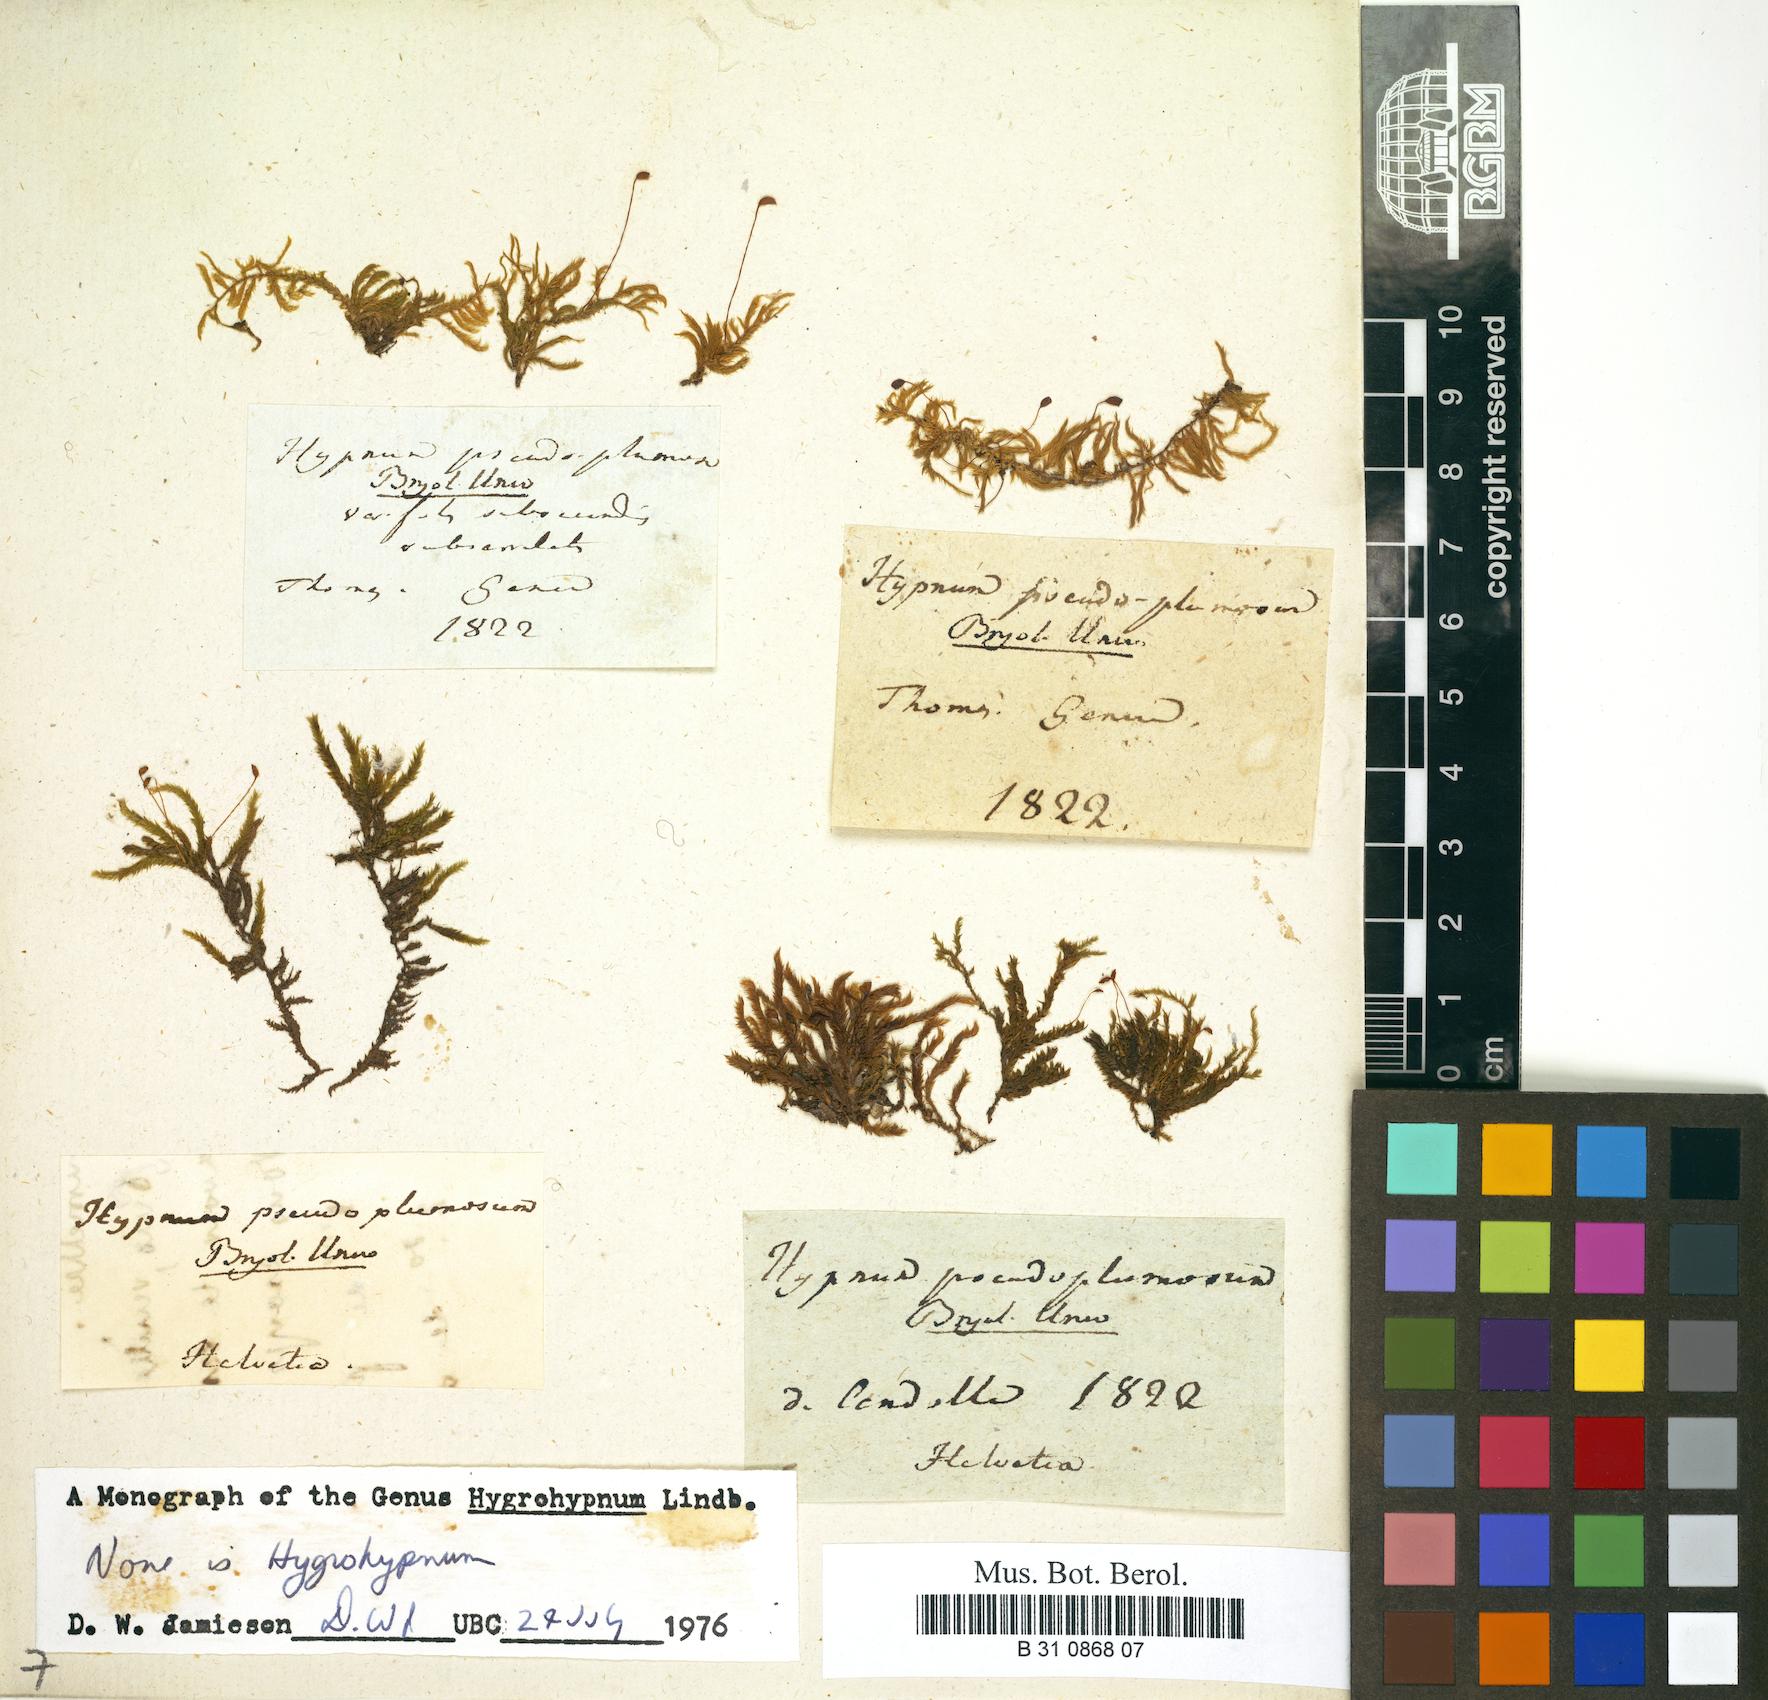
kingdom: Plantae
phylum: Bryophyta
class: Bryopsida
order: Hypnales
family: Brachytheciaceae
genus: Sciuro-hypnum
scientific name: Sciuro-hypnum plumosum
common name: Rusty feather-moss
